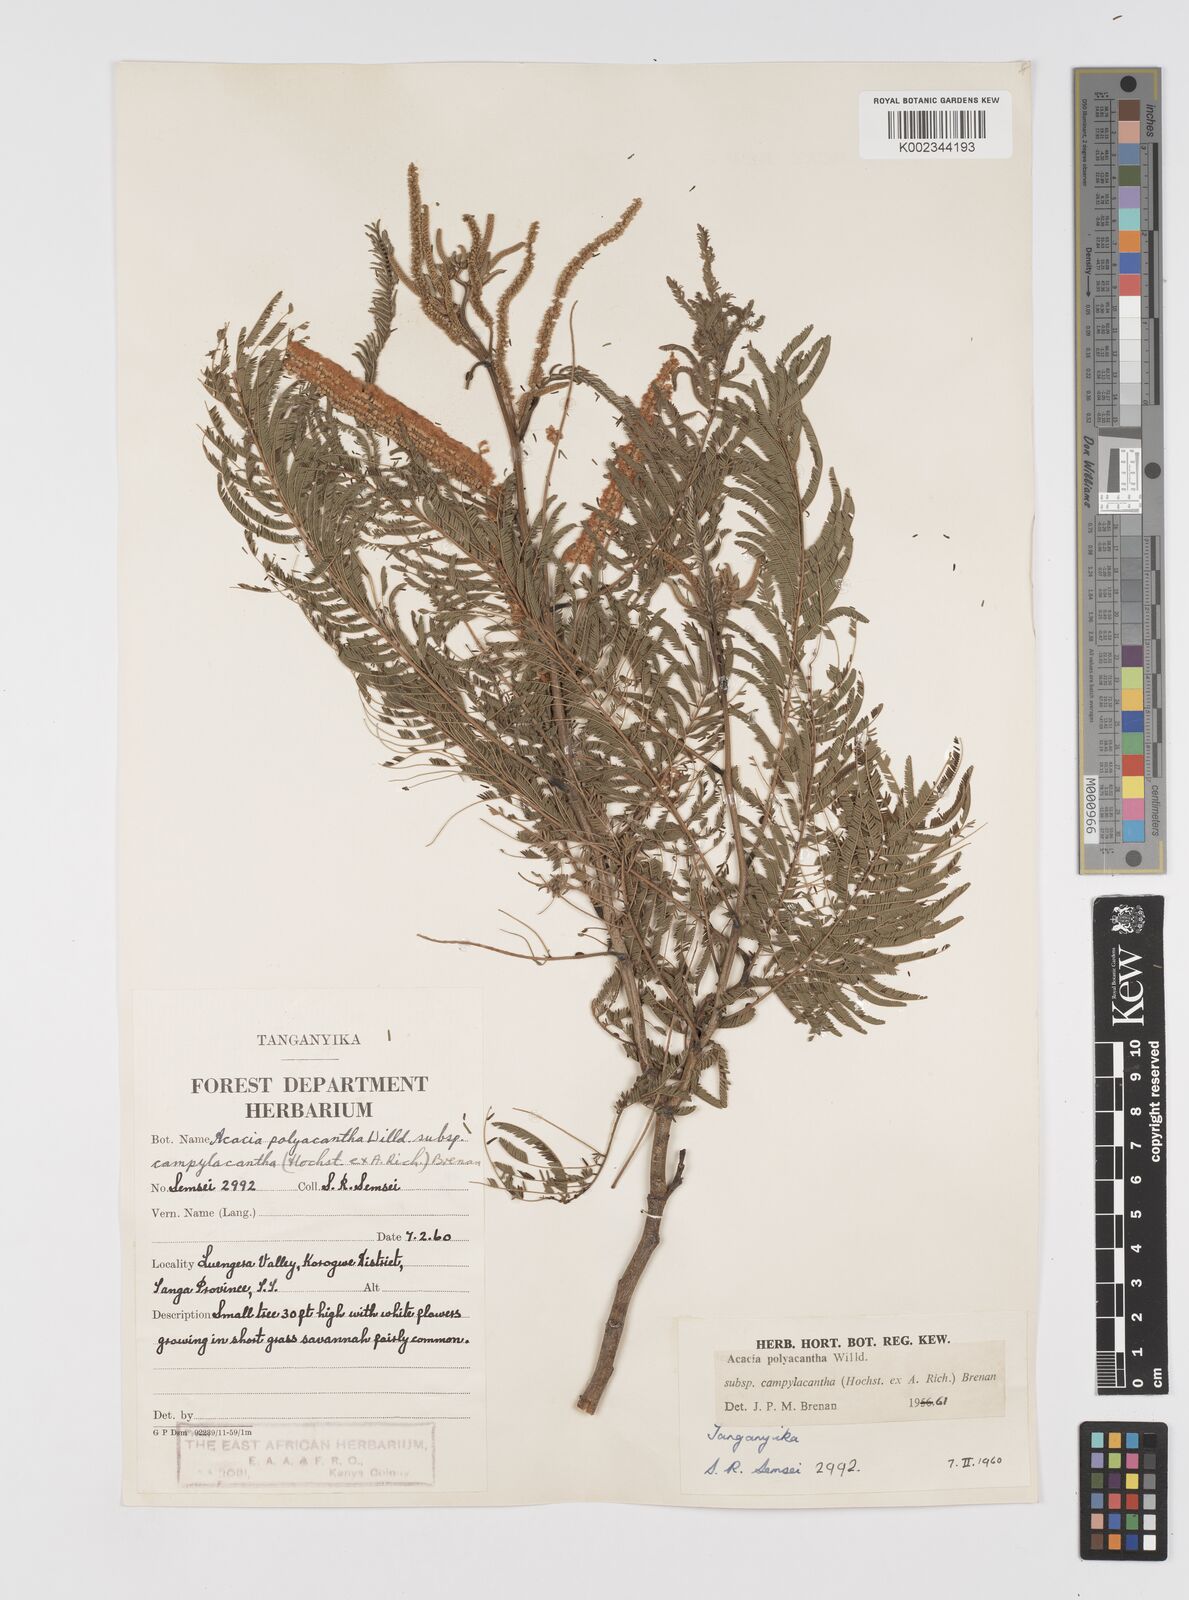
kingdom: Plantae
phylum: Tracheophyta
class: Magnoliopsida
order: Fabales
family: Fabaceae
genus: Senegalia
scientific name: Senegalia polyacantha
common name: Whitethorn
